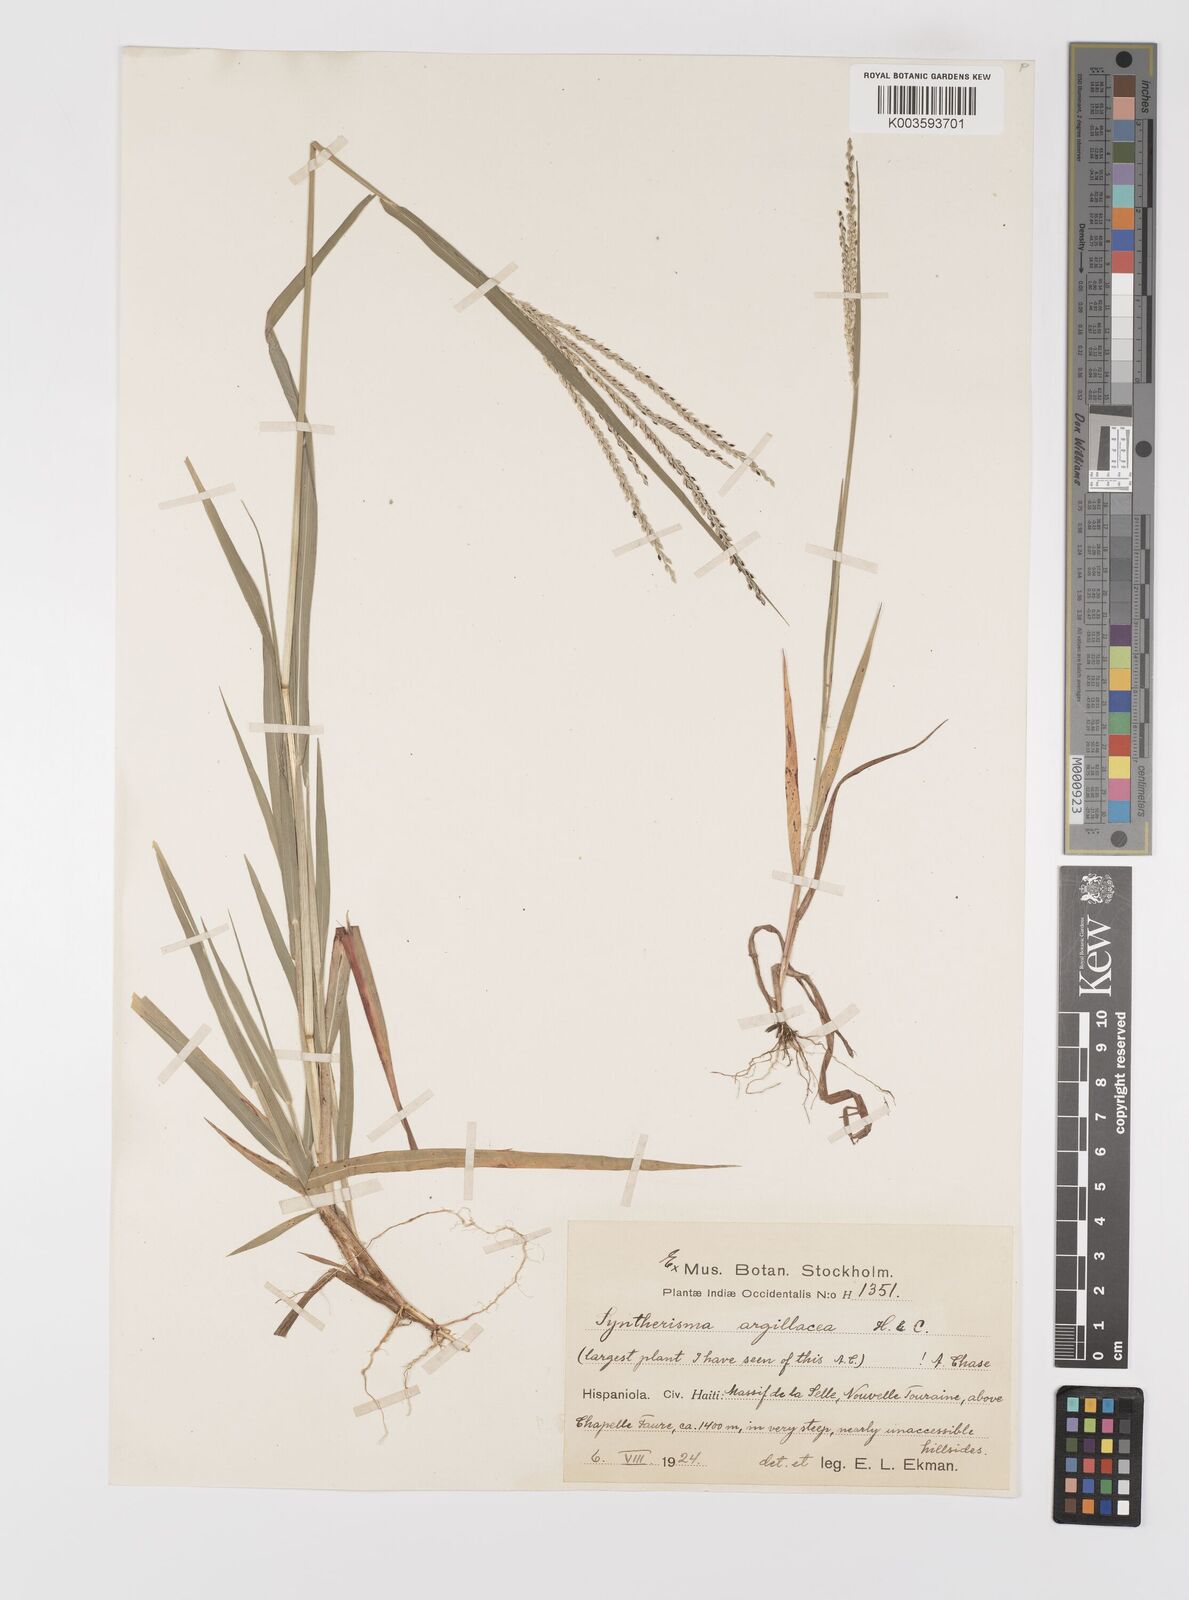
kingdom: Plantae
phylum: Tracheophyta
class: Liliopsida
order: Poales
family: Poaceae
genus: Digitaria
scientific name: Digitaria argillacea
